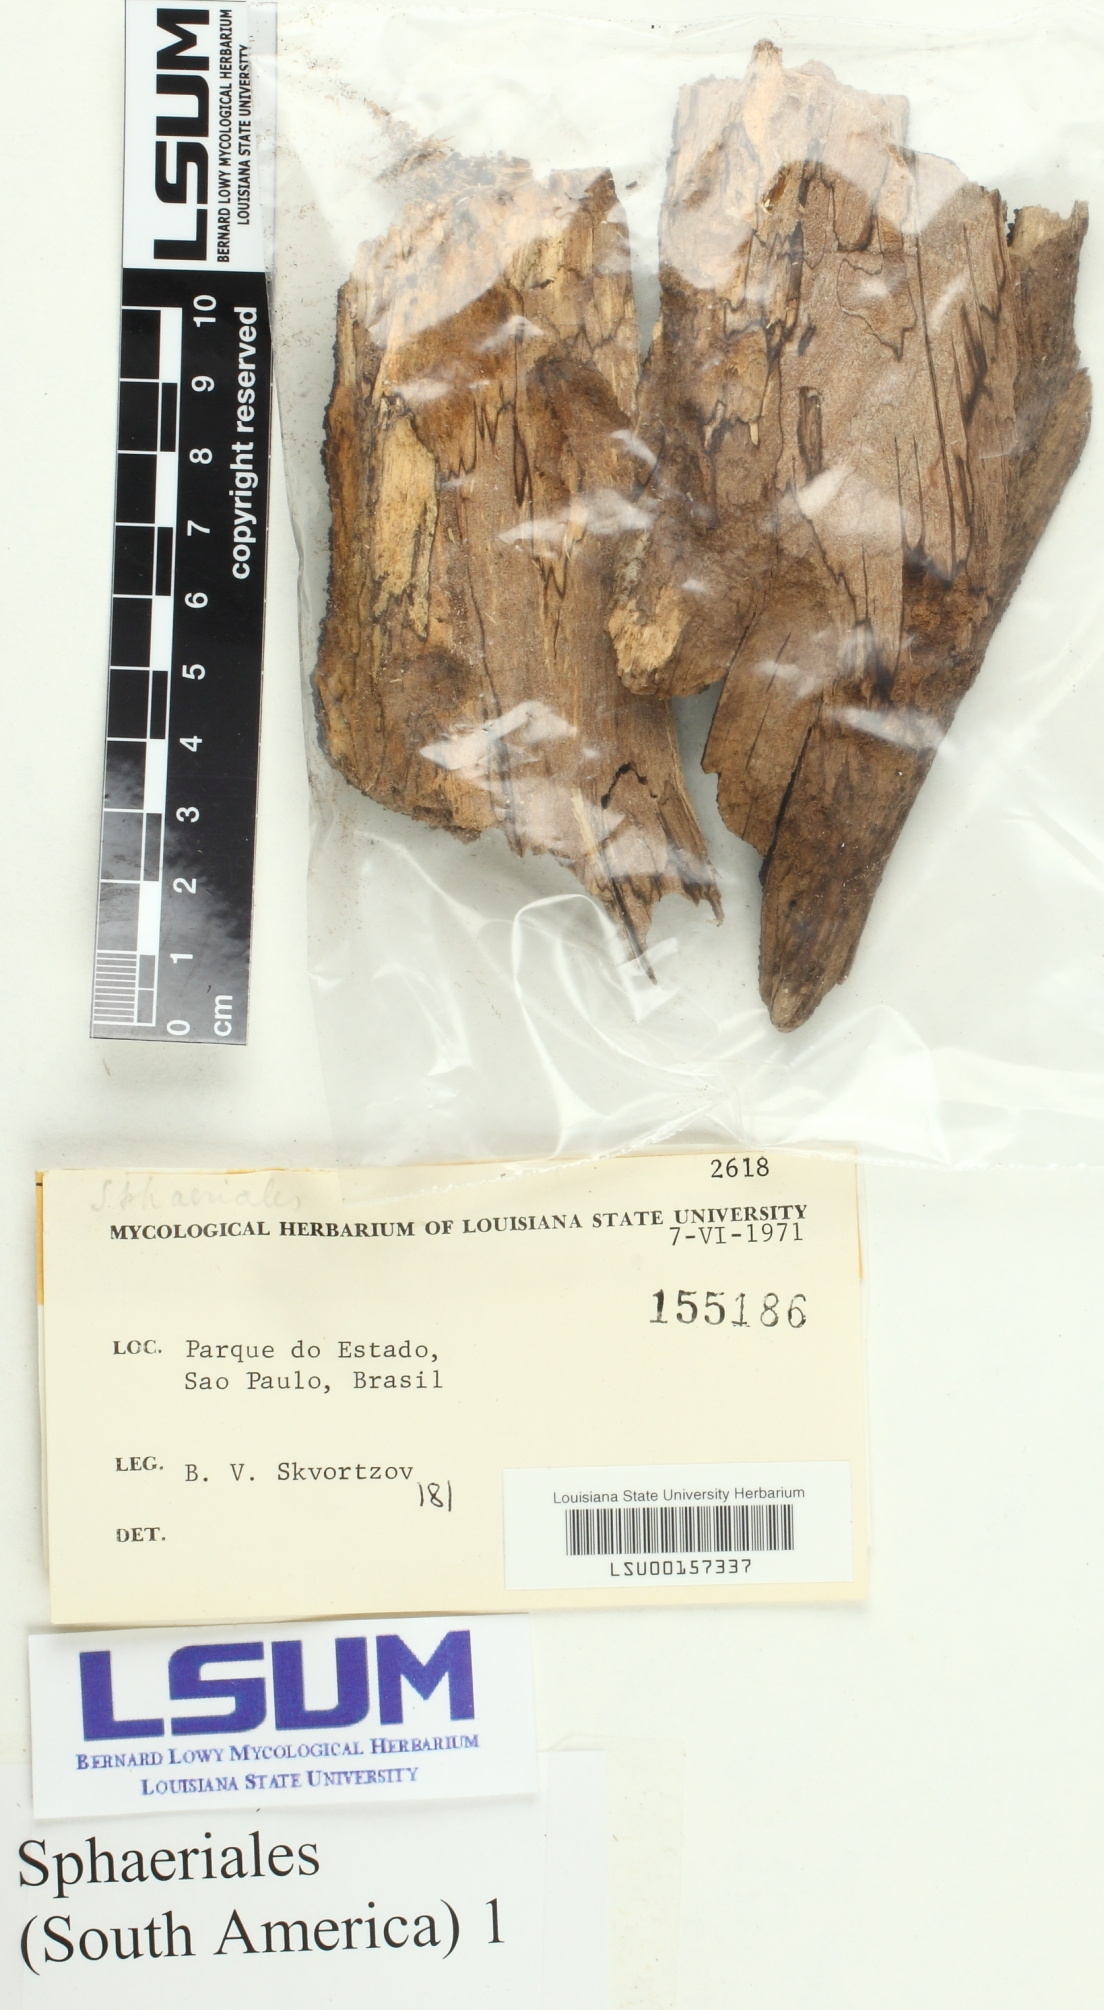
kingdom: Fungi
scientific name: Fungi
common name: Fungi
